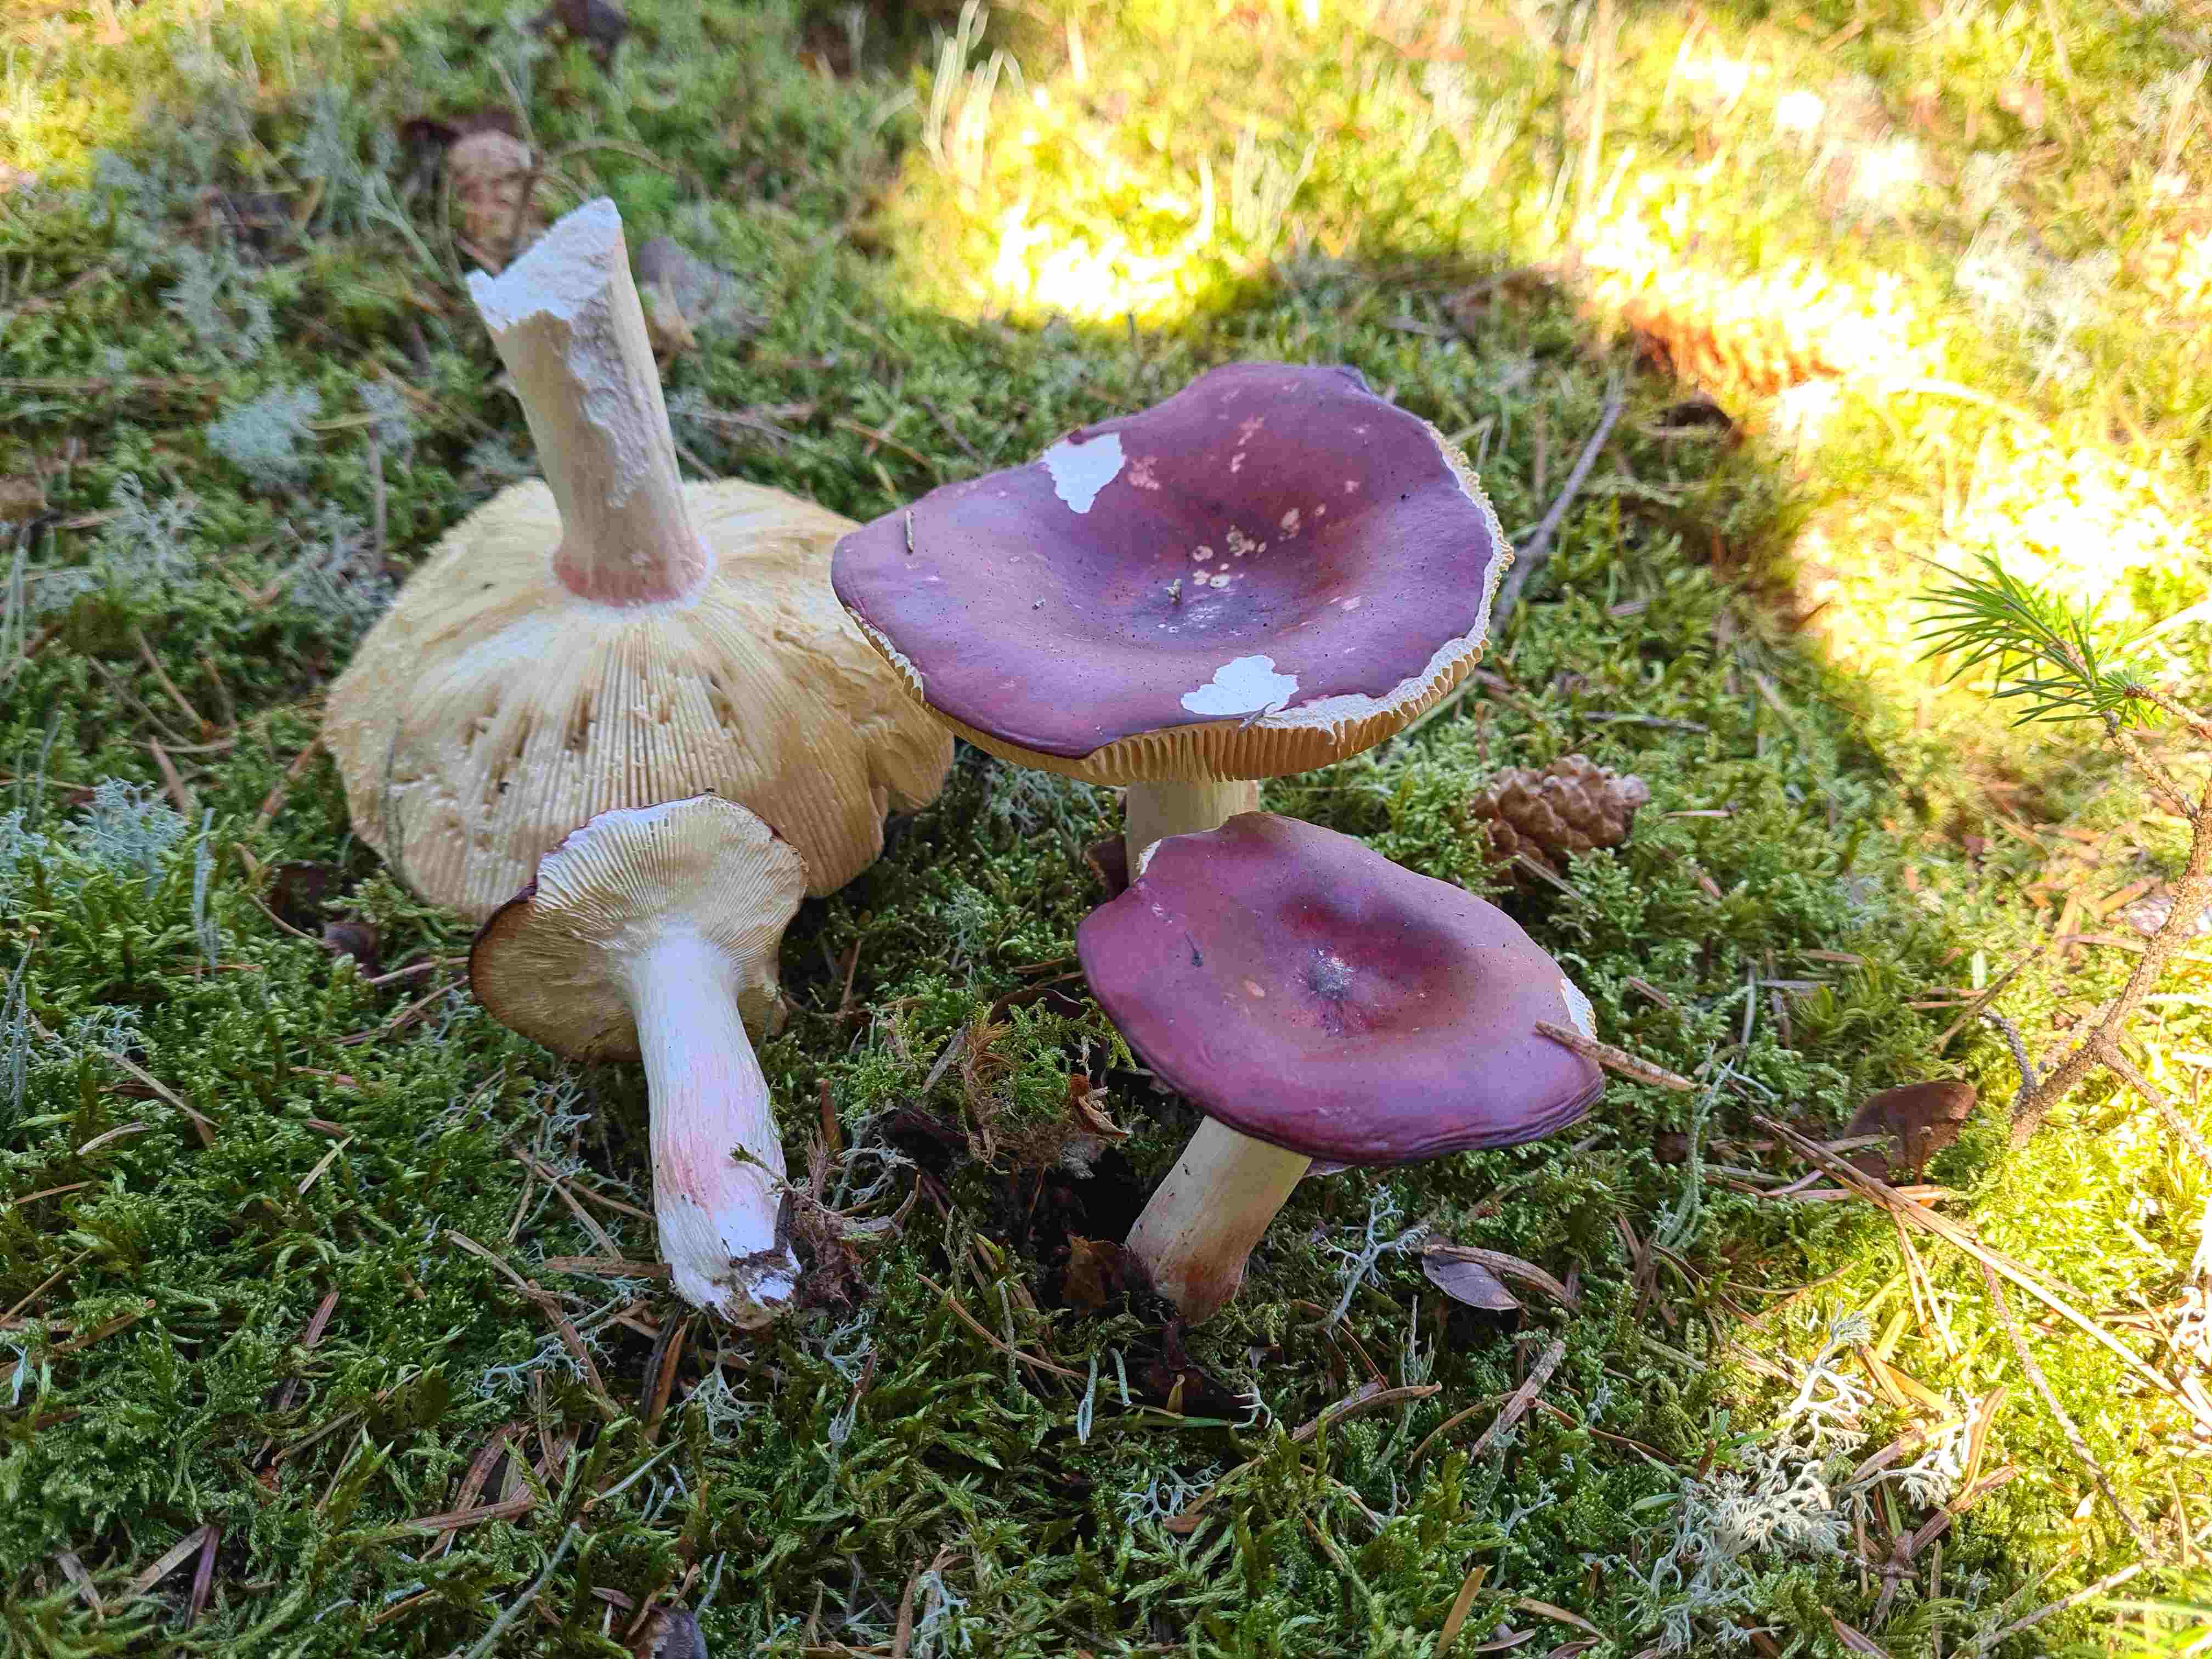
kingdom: Fungi
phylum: Basidiomycota
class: Agaricomycetes
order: Russulales
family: Russulaceae
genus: Russula
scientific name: Russula
